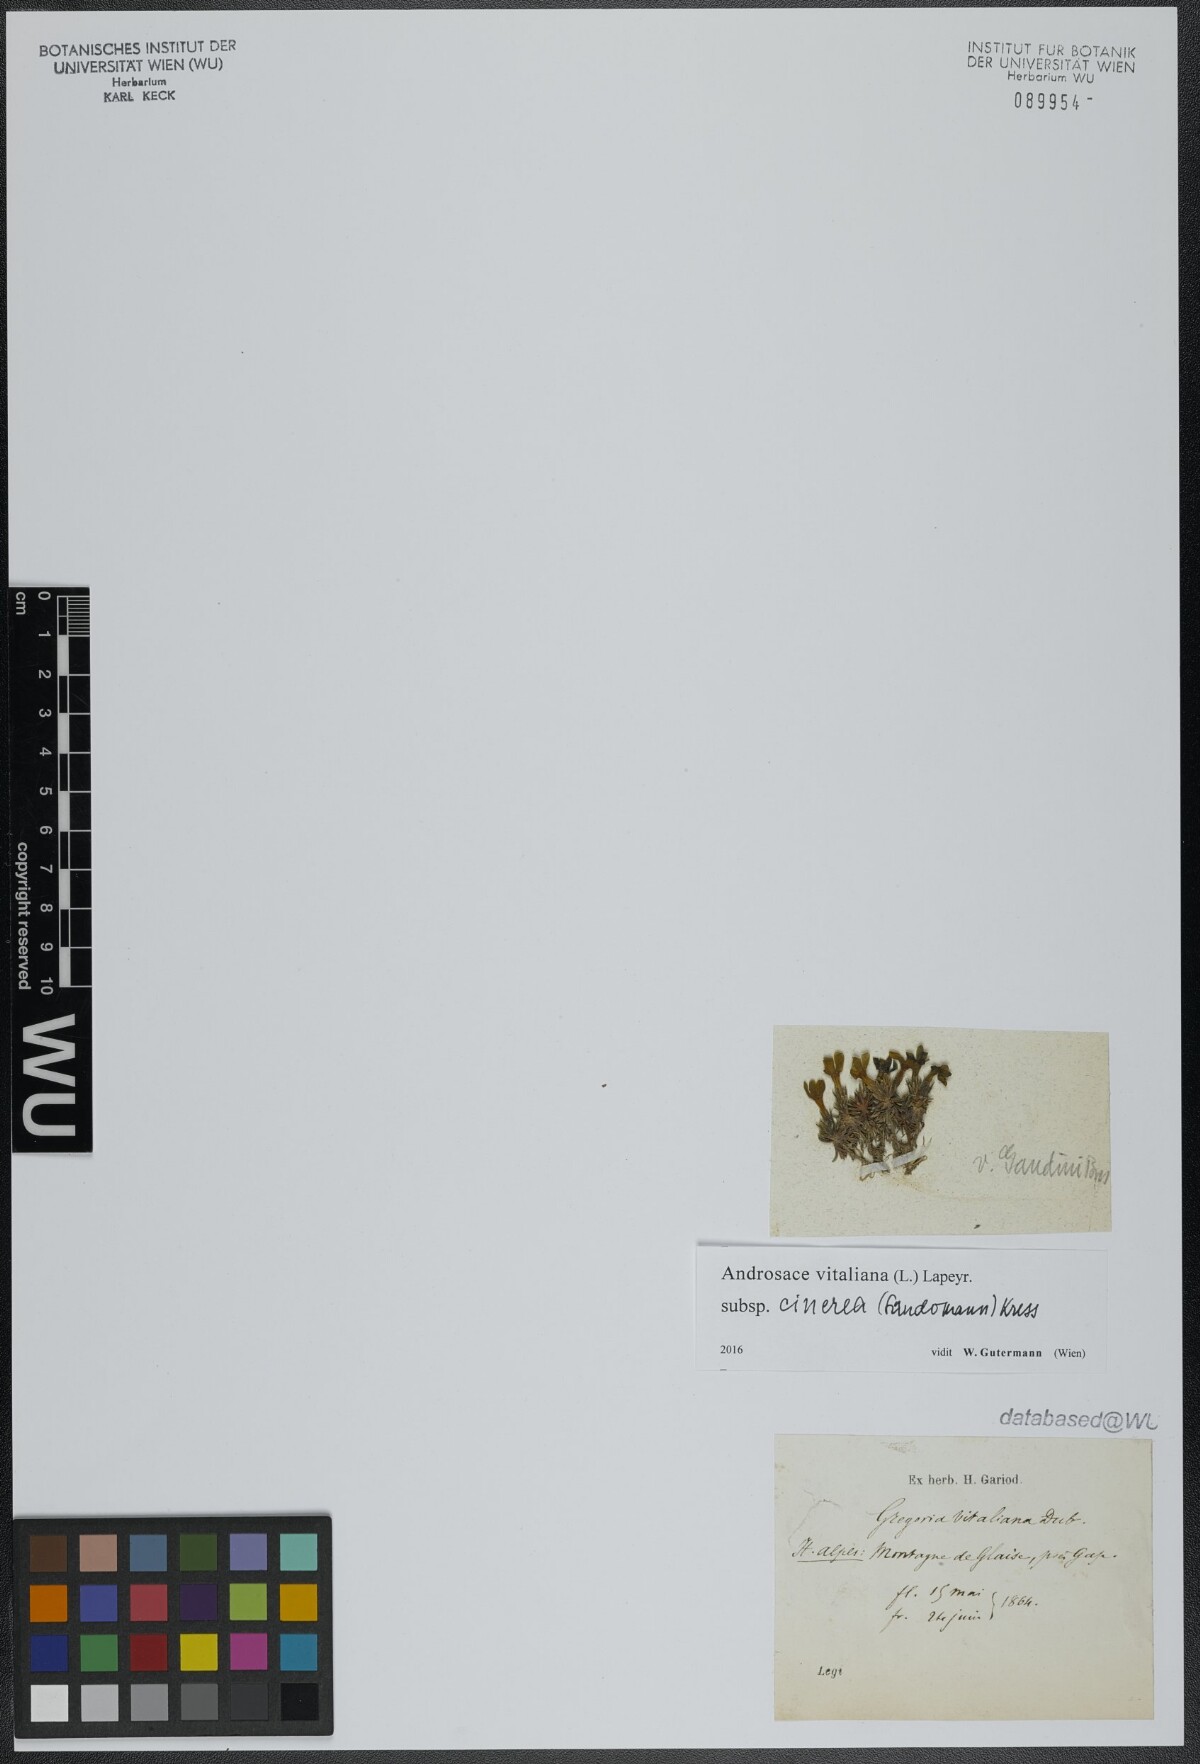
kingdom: Plantae
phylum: Tracheophyta
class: Magnoliopsida
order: Ericales
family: Primulaceae
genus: Androsace
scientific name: Androsace vitaliana
